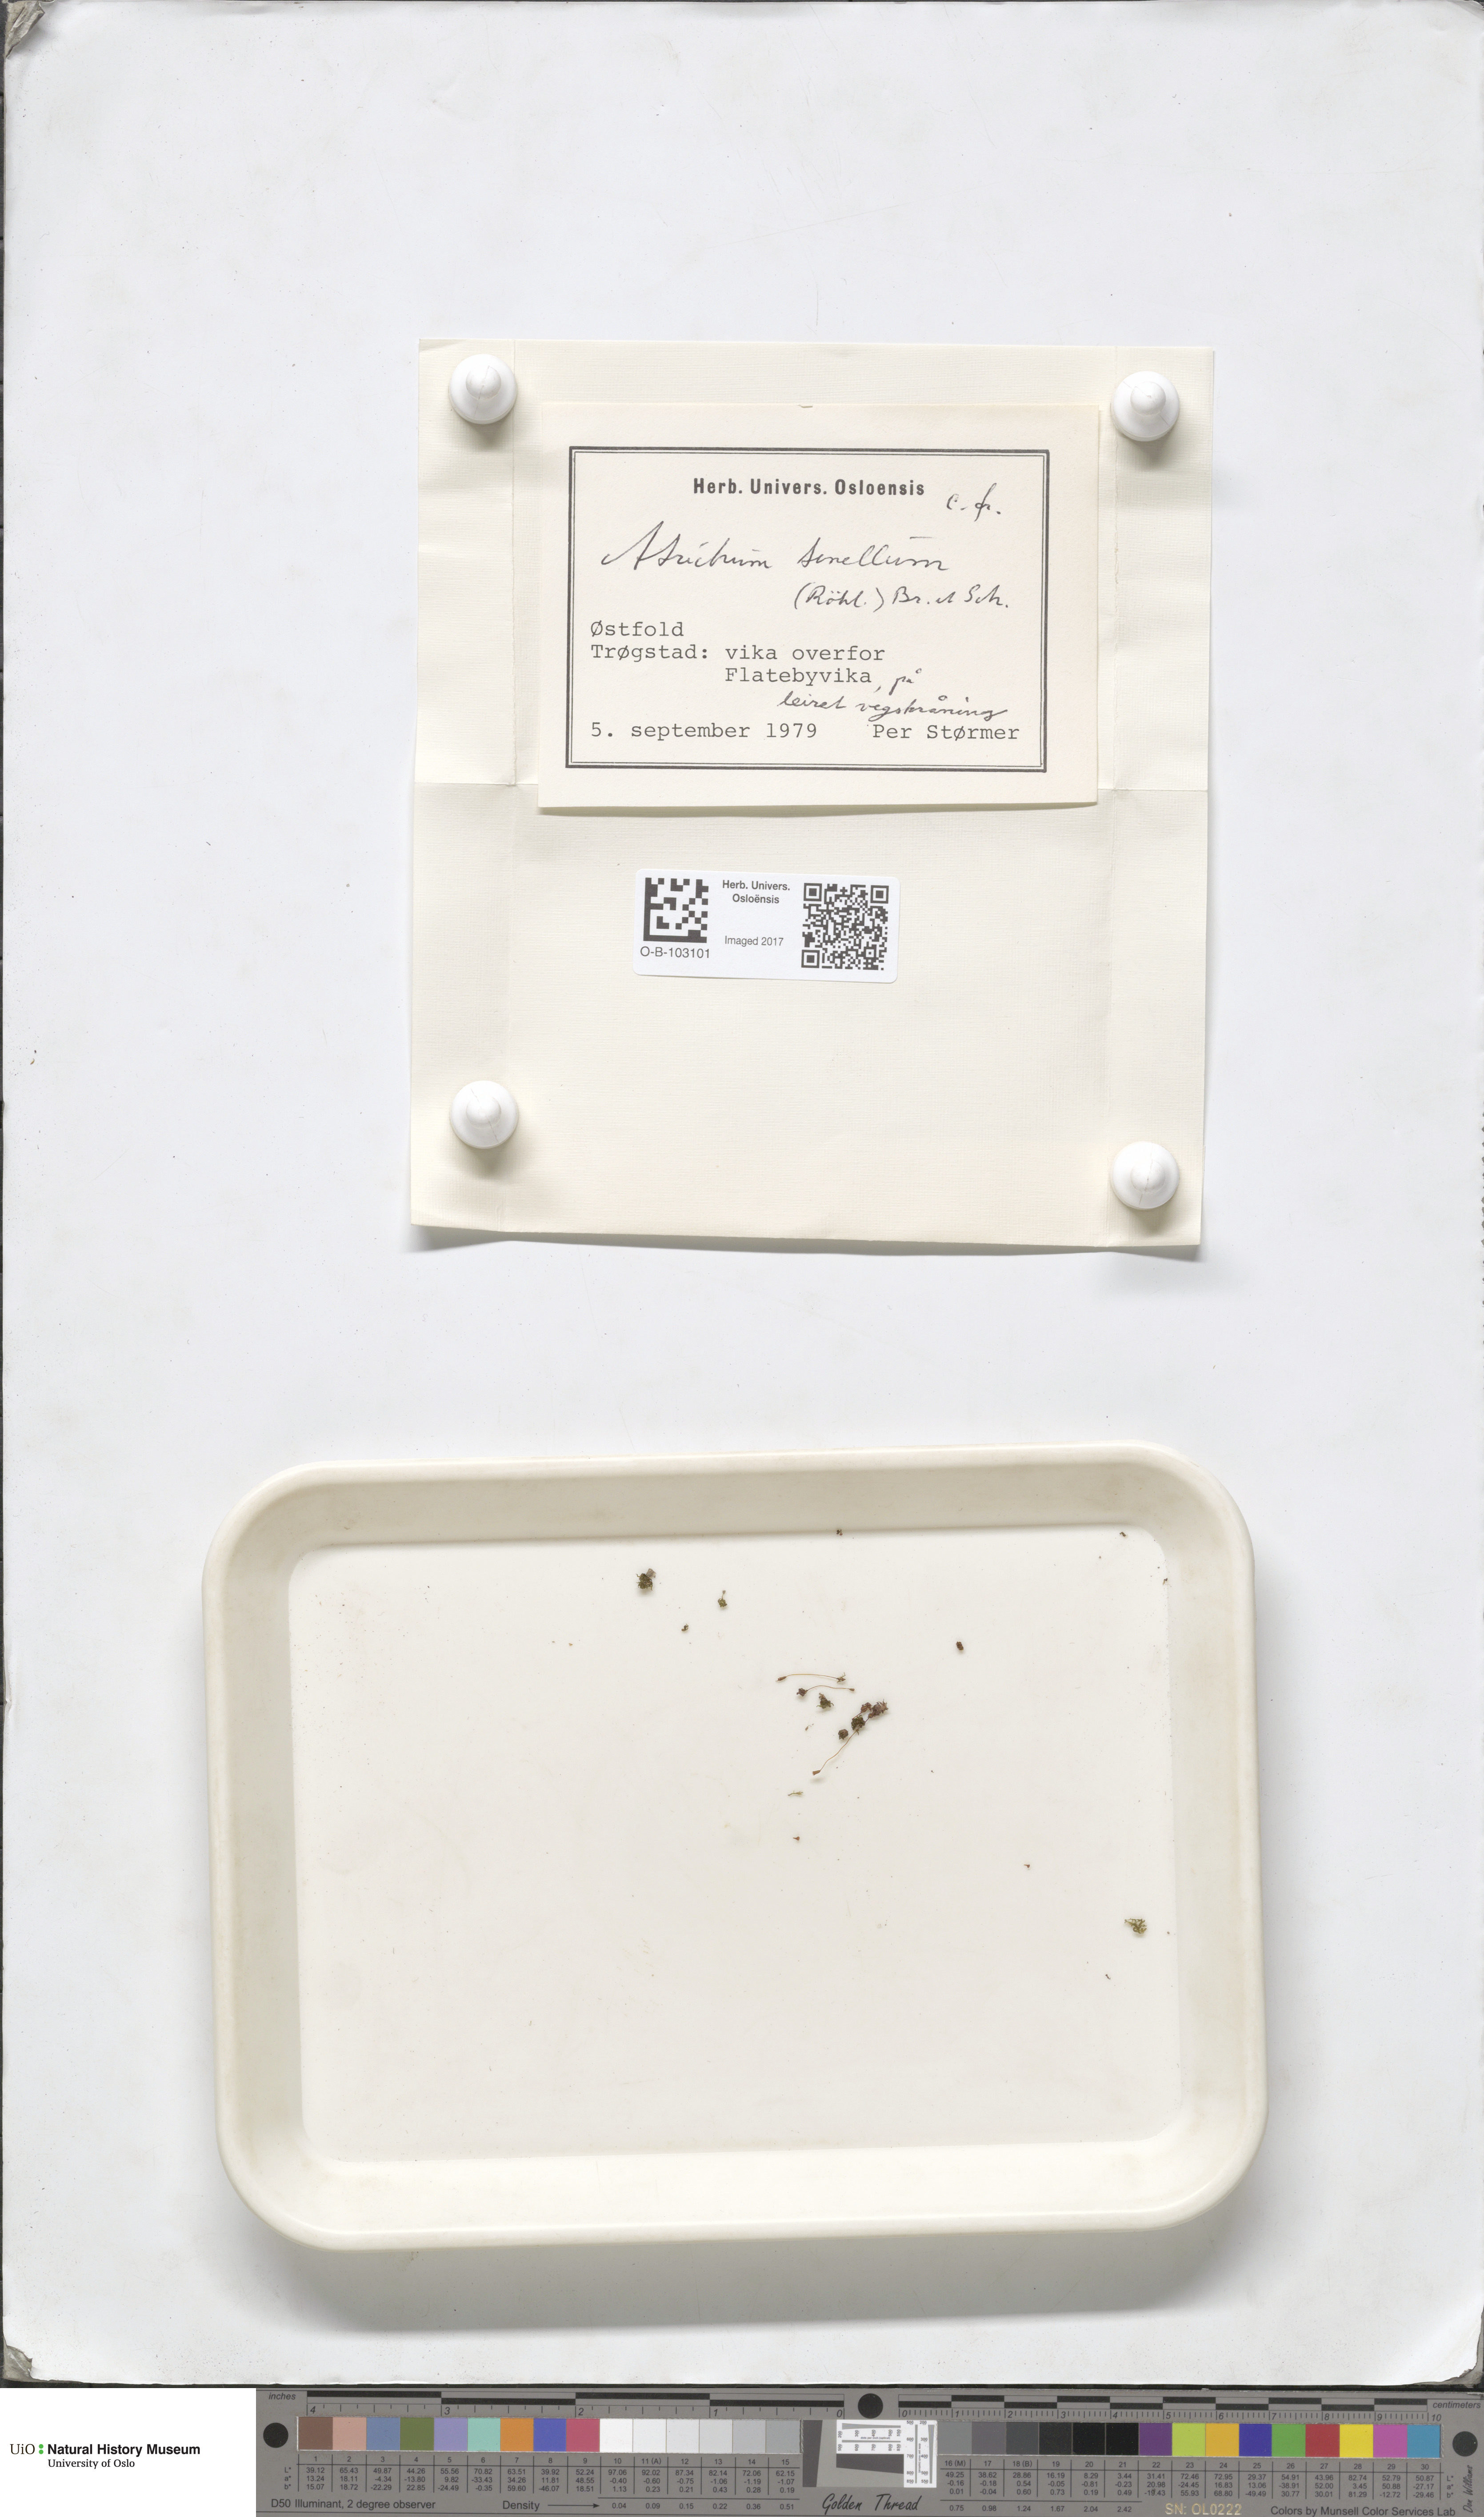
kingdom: Plantae
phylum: Bryophyta
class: Polytrichopsida
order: Polytrichales
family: Polytrichaceae
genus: Atrichum
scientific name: Atrichum tenellum
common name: Slender smoothcap moss
